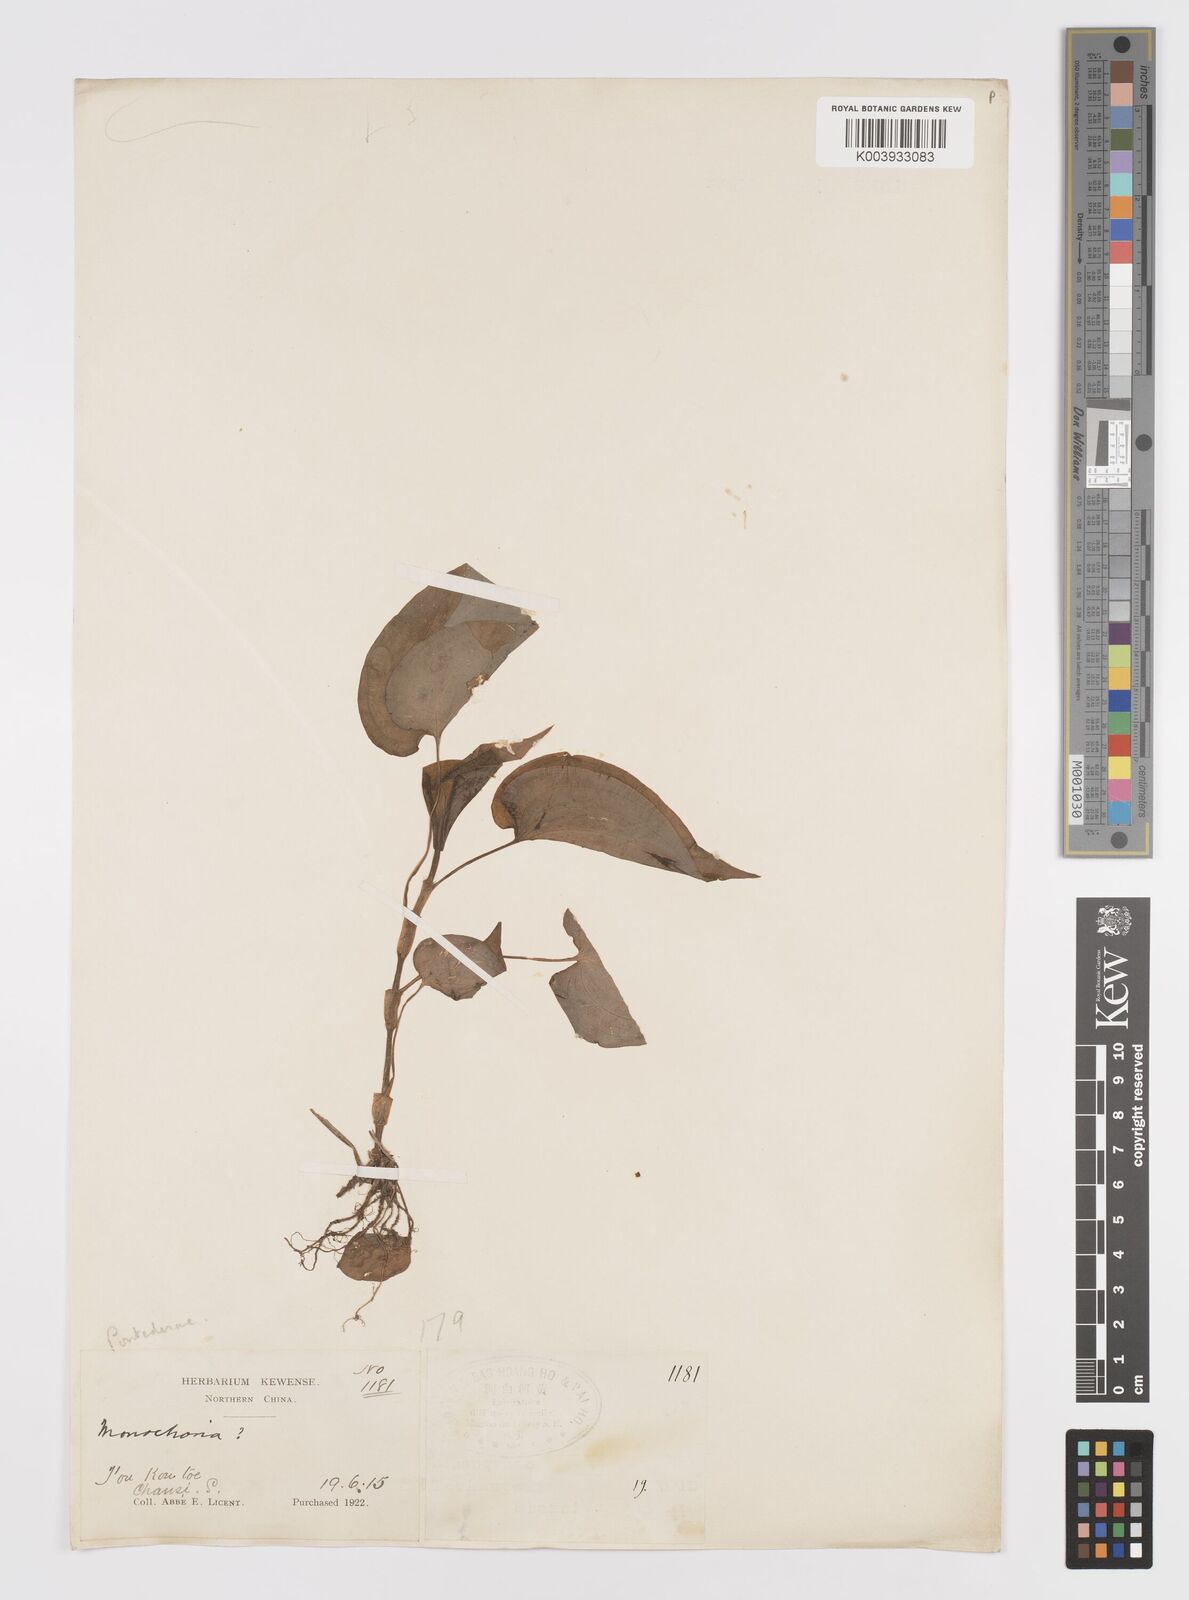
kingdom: Plantae
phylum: Tracheophyta
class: Liliopsida
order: Commelinales
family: Commelinaceae
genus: Streptolirion
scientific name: Streptolirion volubile
